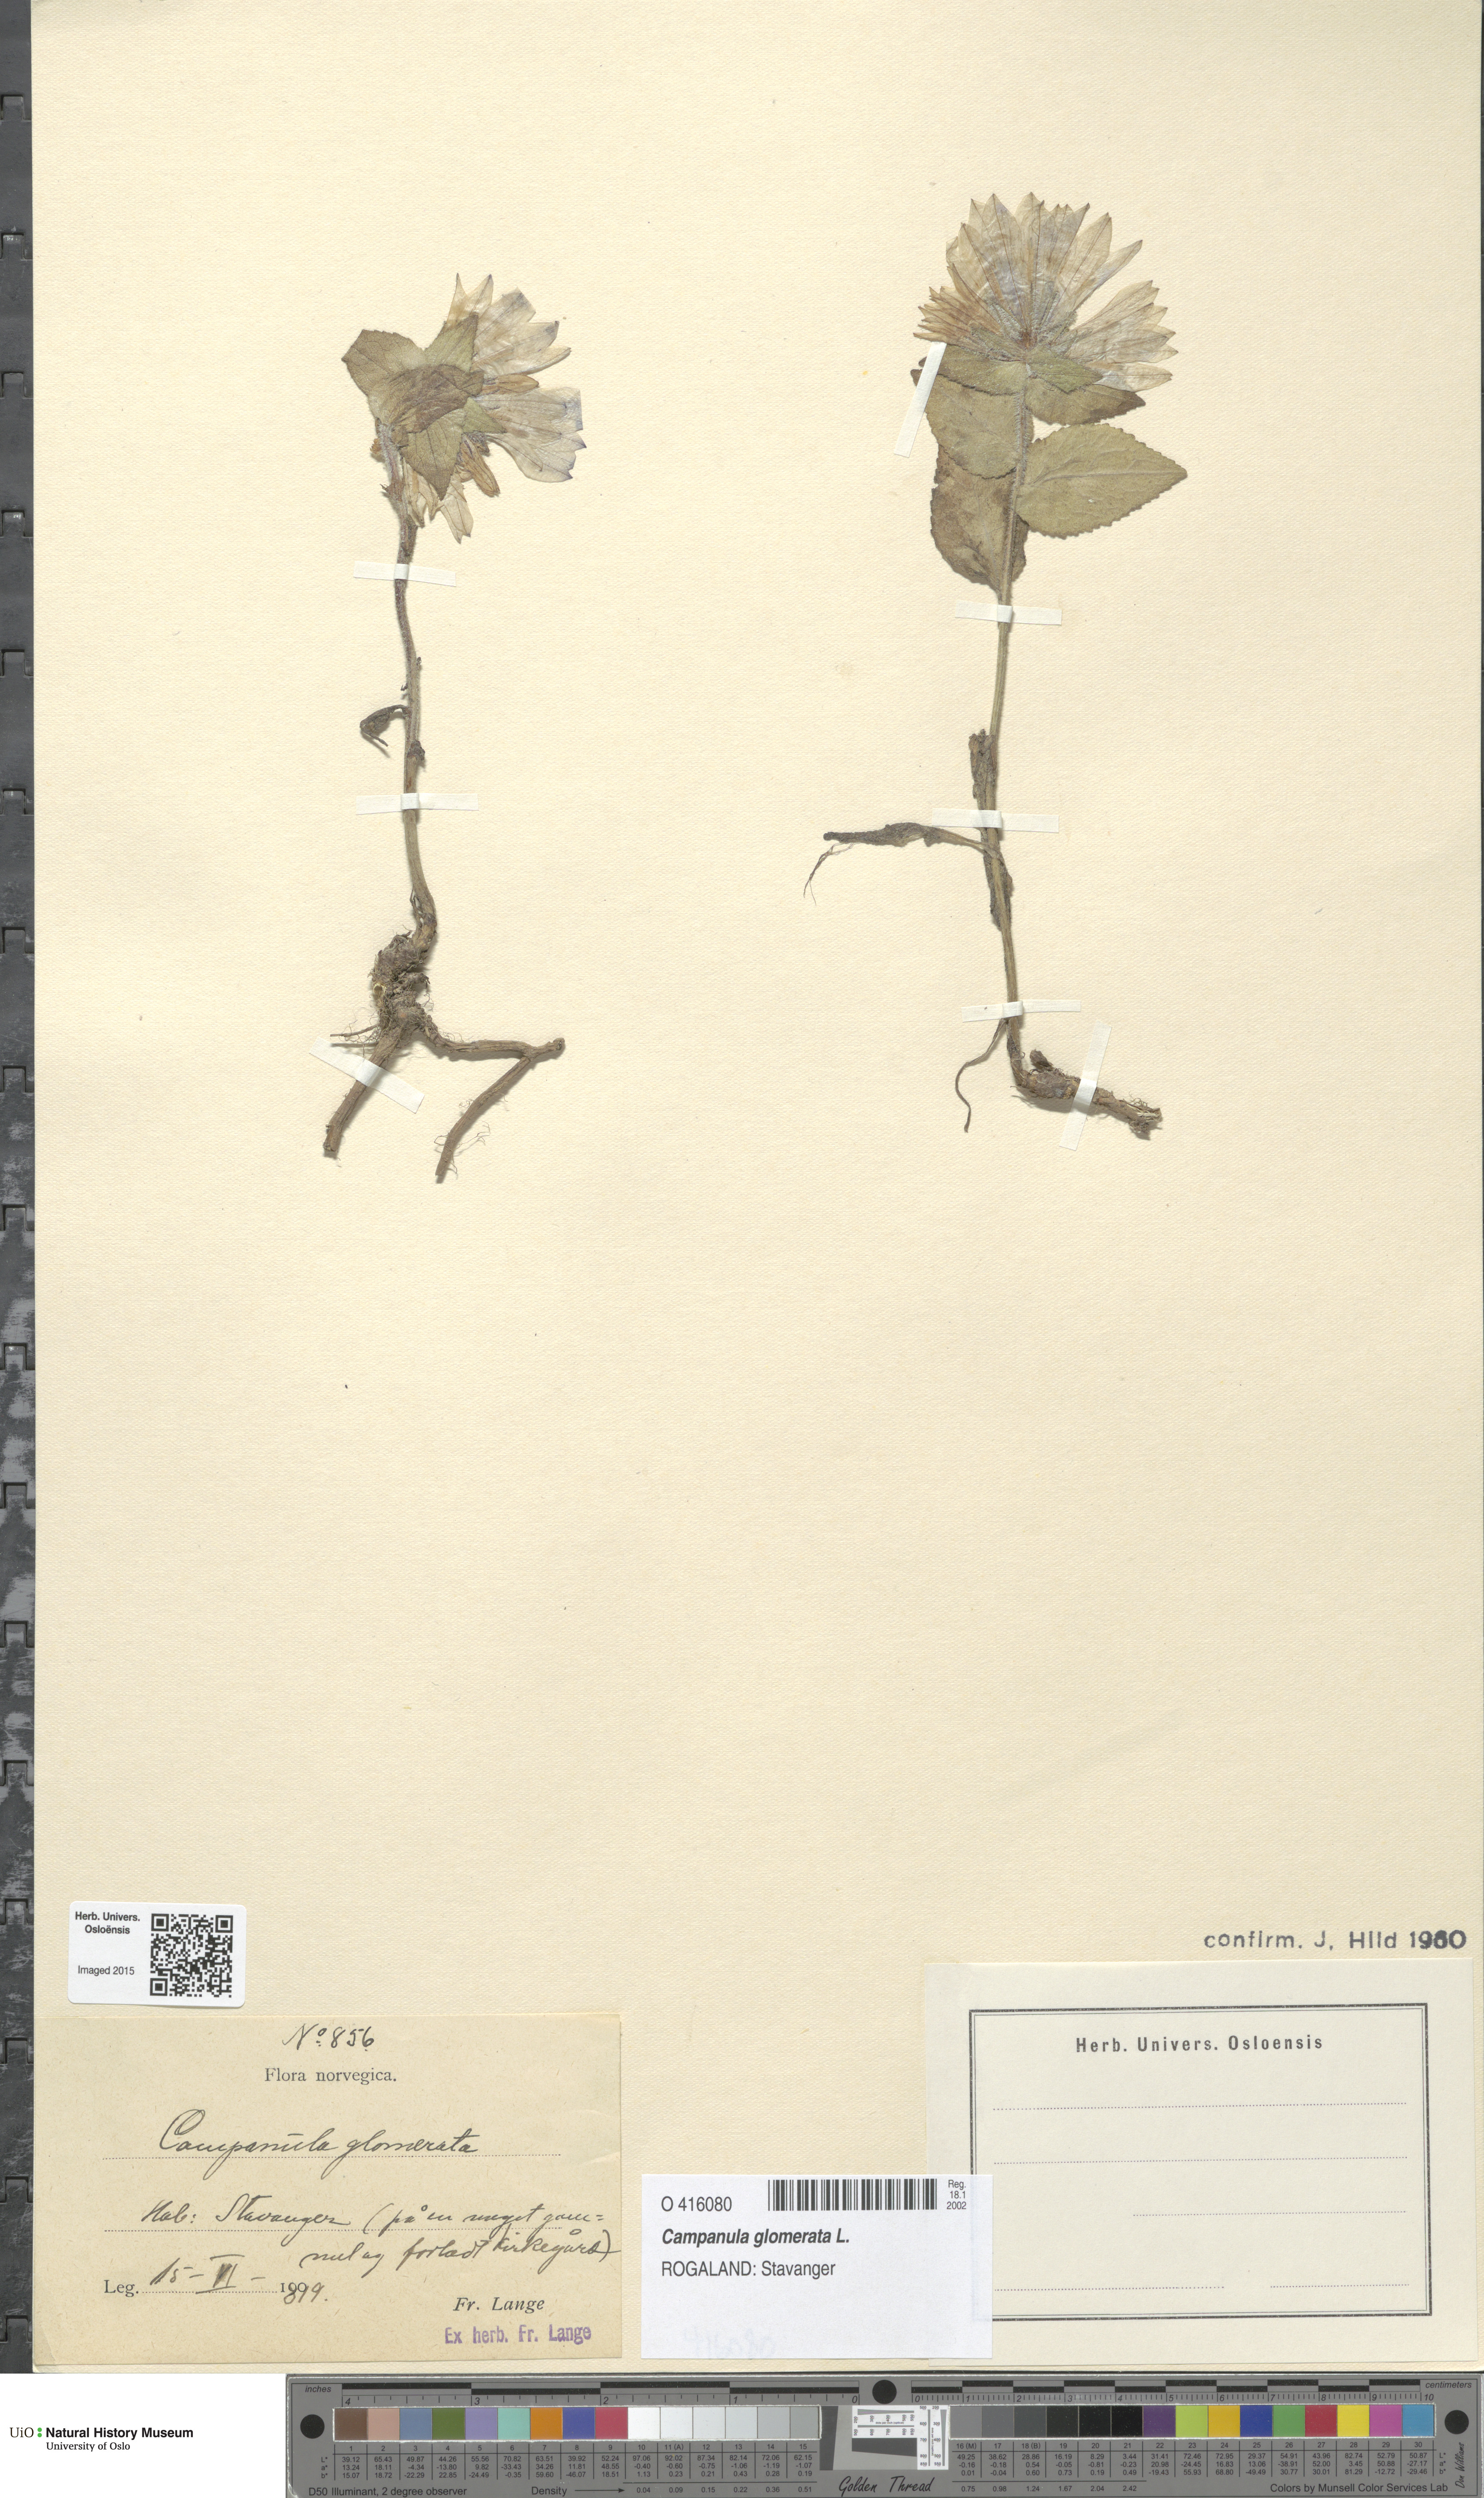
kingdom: Plantae
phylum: Tracheophyta
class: Magnoliopsida
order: Asterales
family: Campanulaceae
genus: Campanula
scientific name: Campanula glomerata
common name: Clustered bellflower
